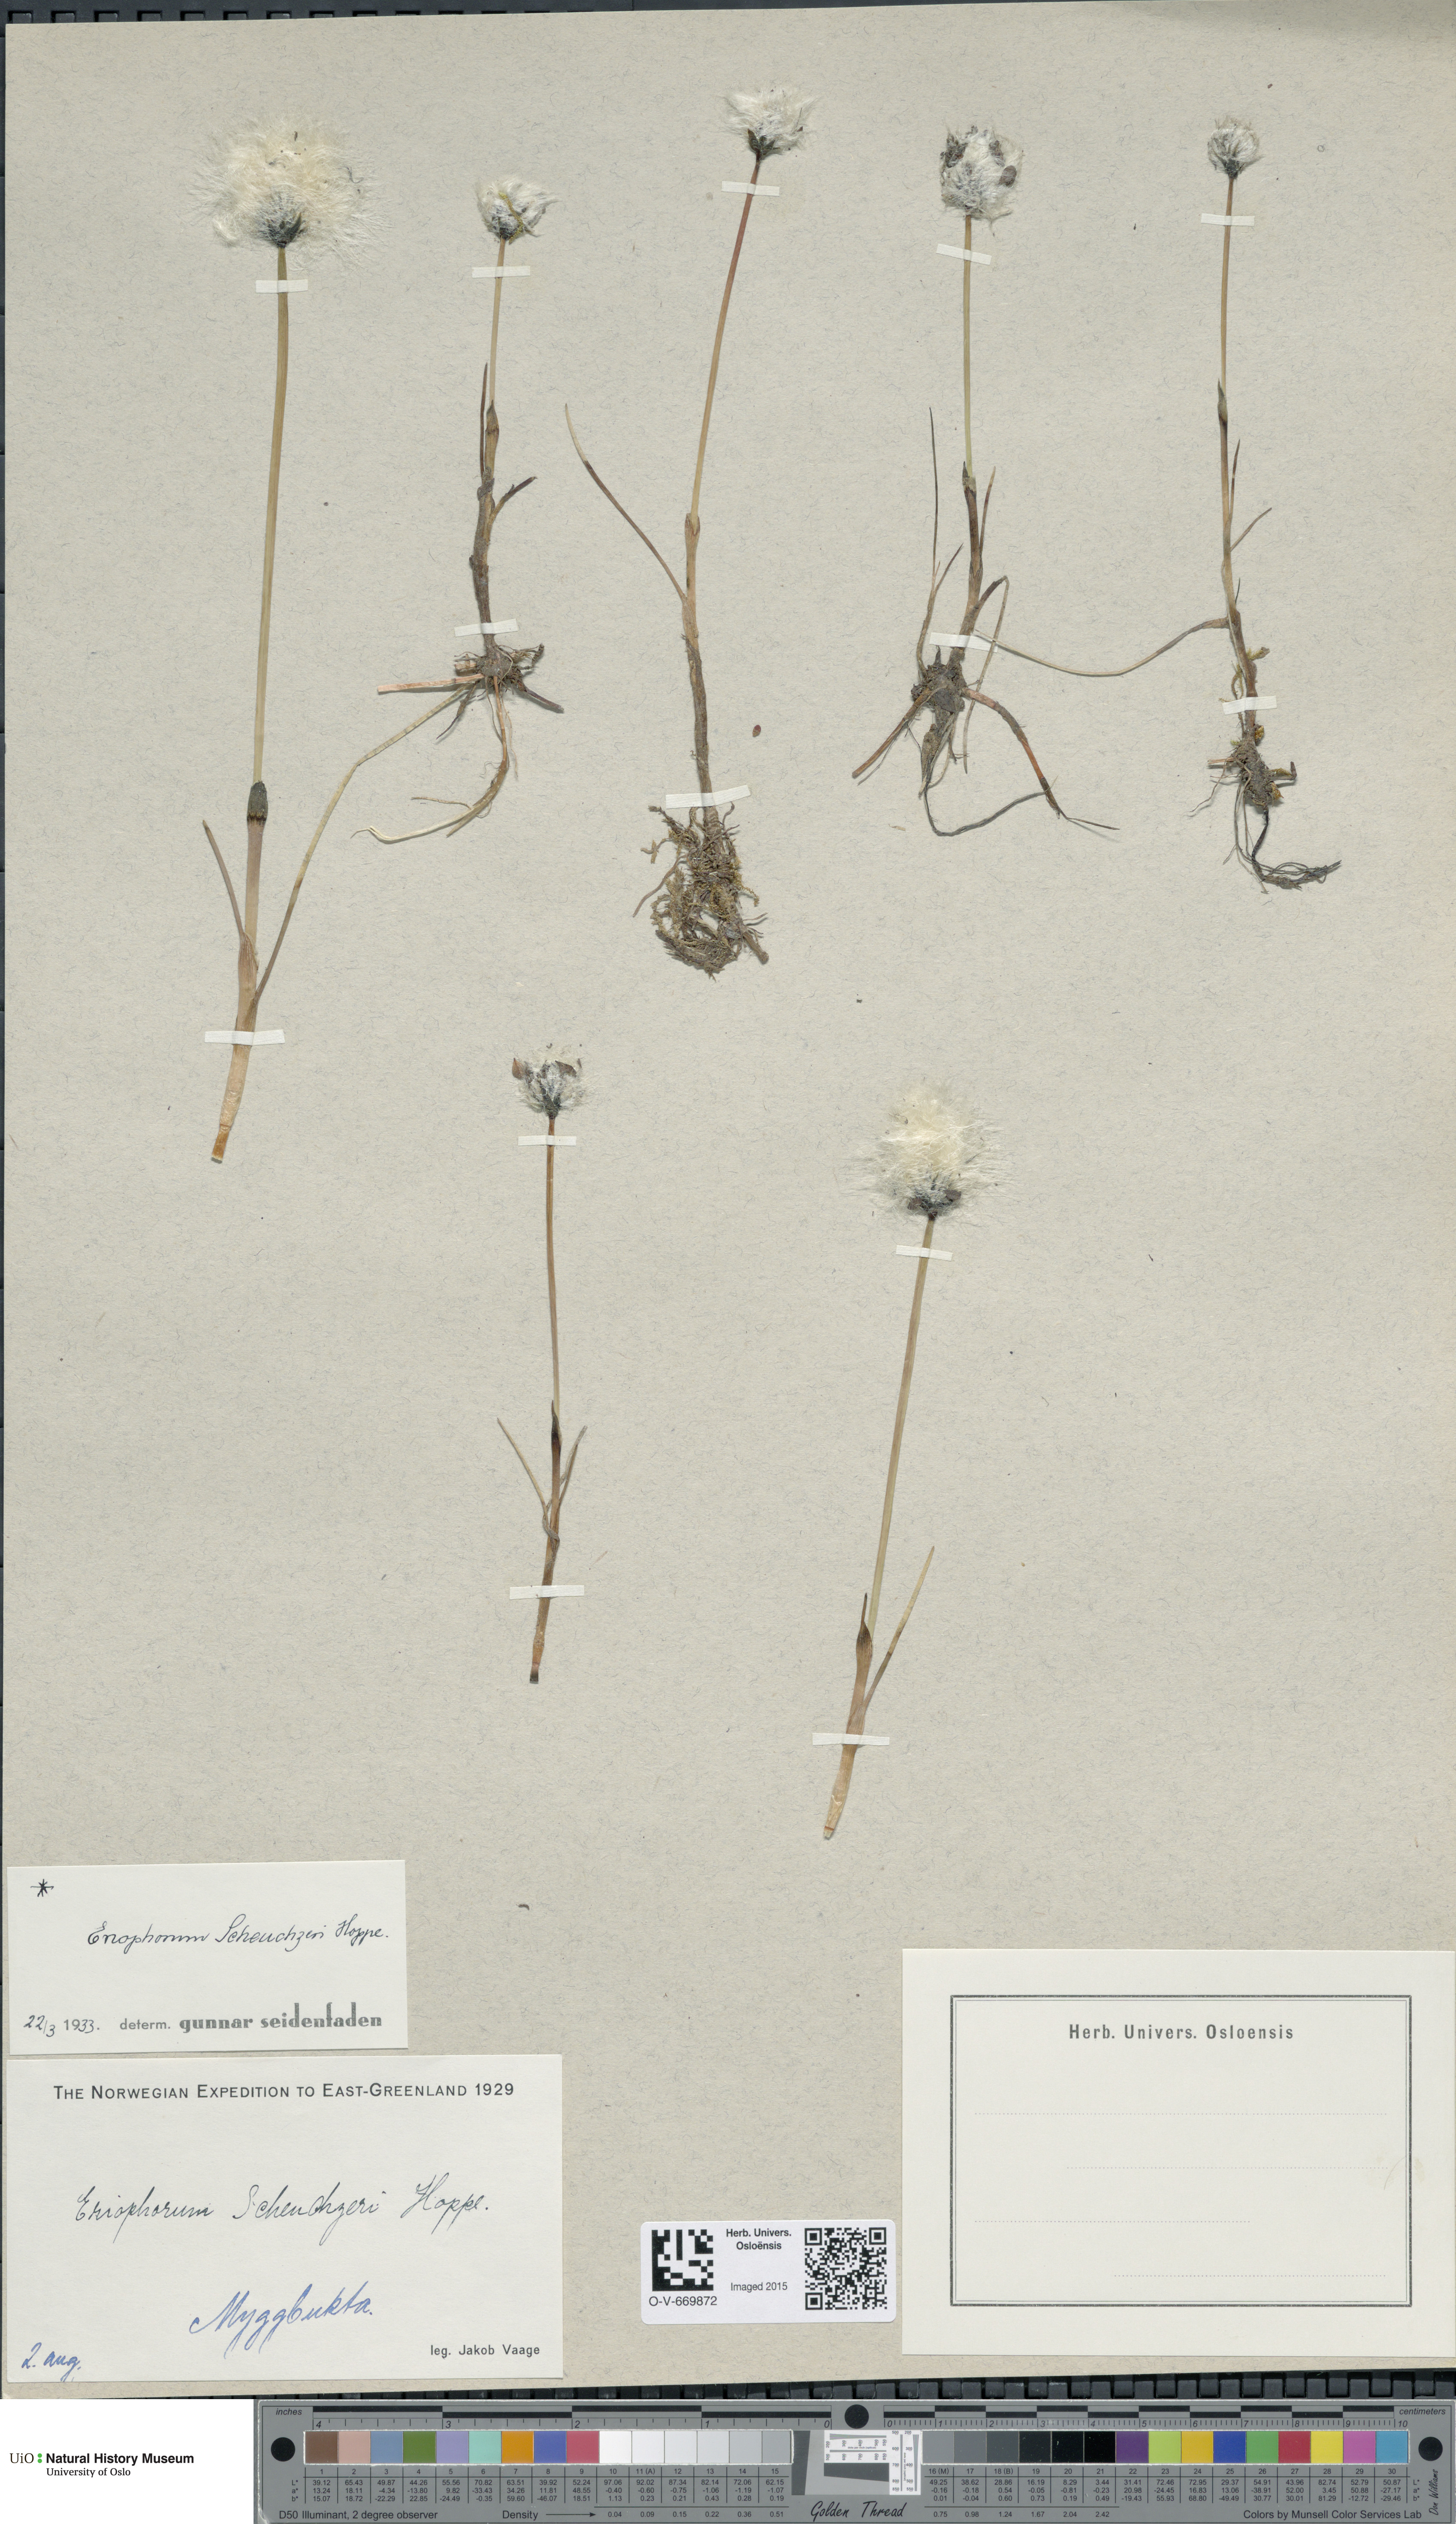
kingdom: Plantae
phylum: Tracheophyta
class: Liliopsida
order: Poales
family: Cyperaceae
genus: Eriophorum
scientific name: Eriophorum scheuchzeri
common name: Scheuchzer's cottongrass
